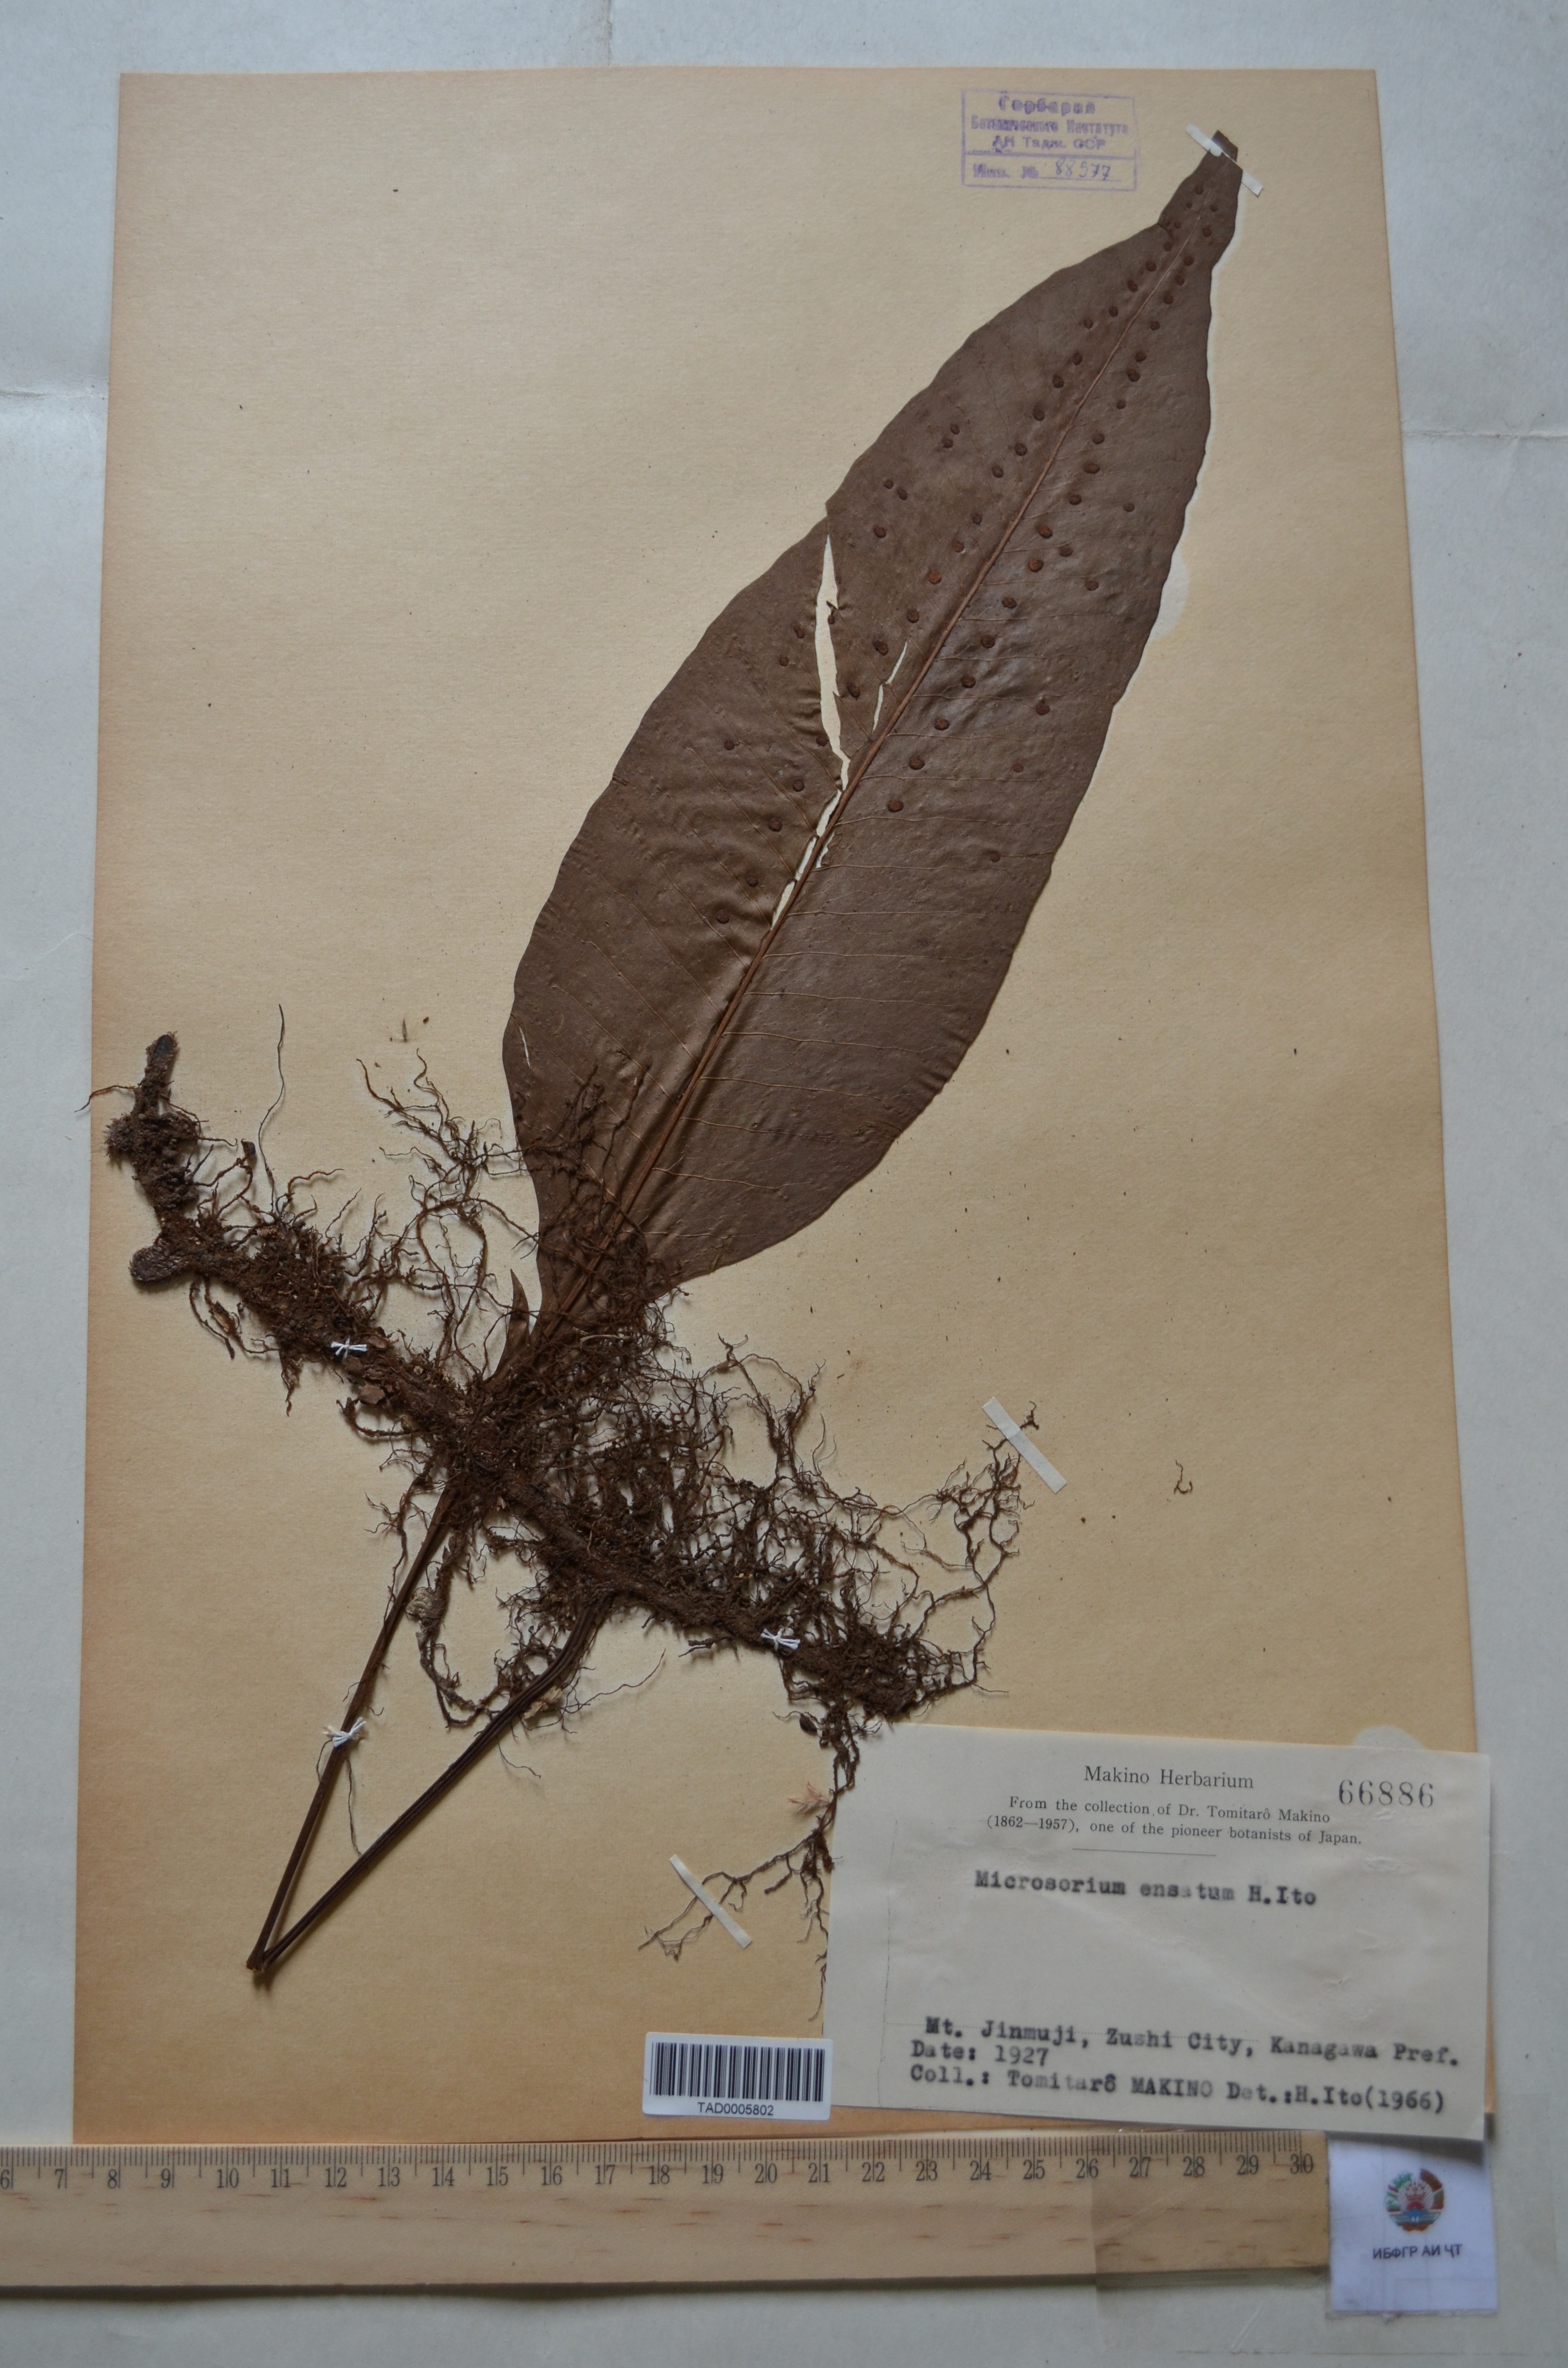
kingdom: Plantae
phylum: Tracheophyta
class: Polypodiopsida
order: Polypodiales
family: Polypodiaceae
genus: Lepisorus
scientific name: Lepisorus ensatus
